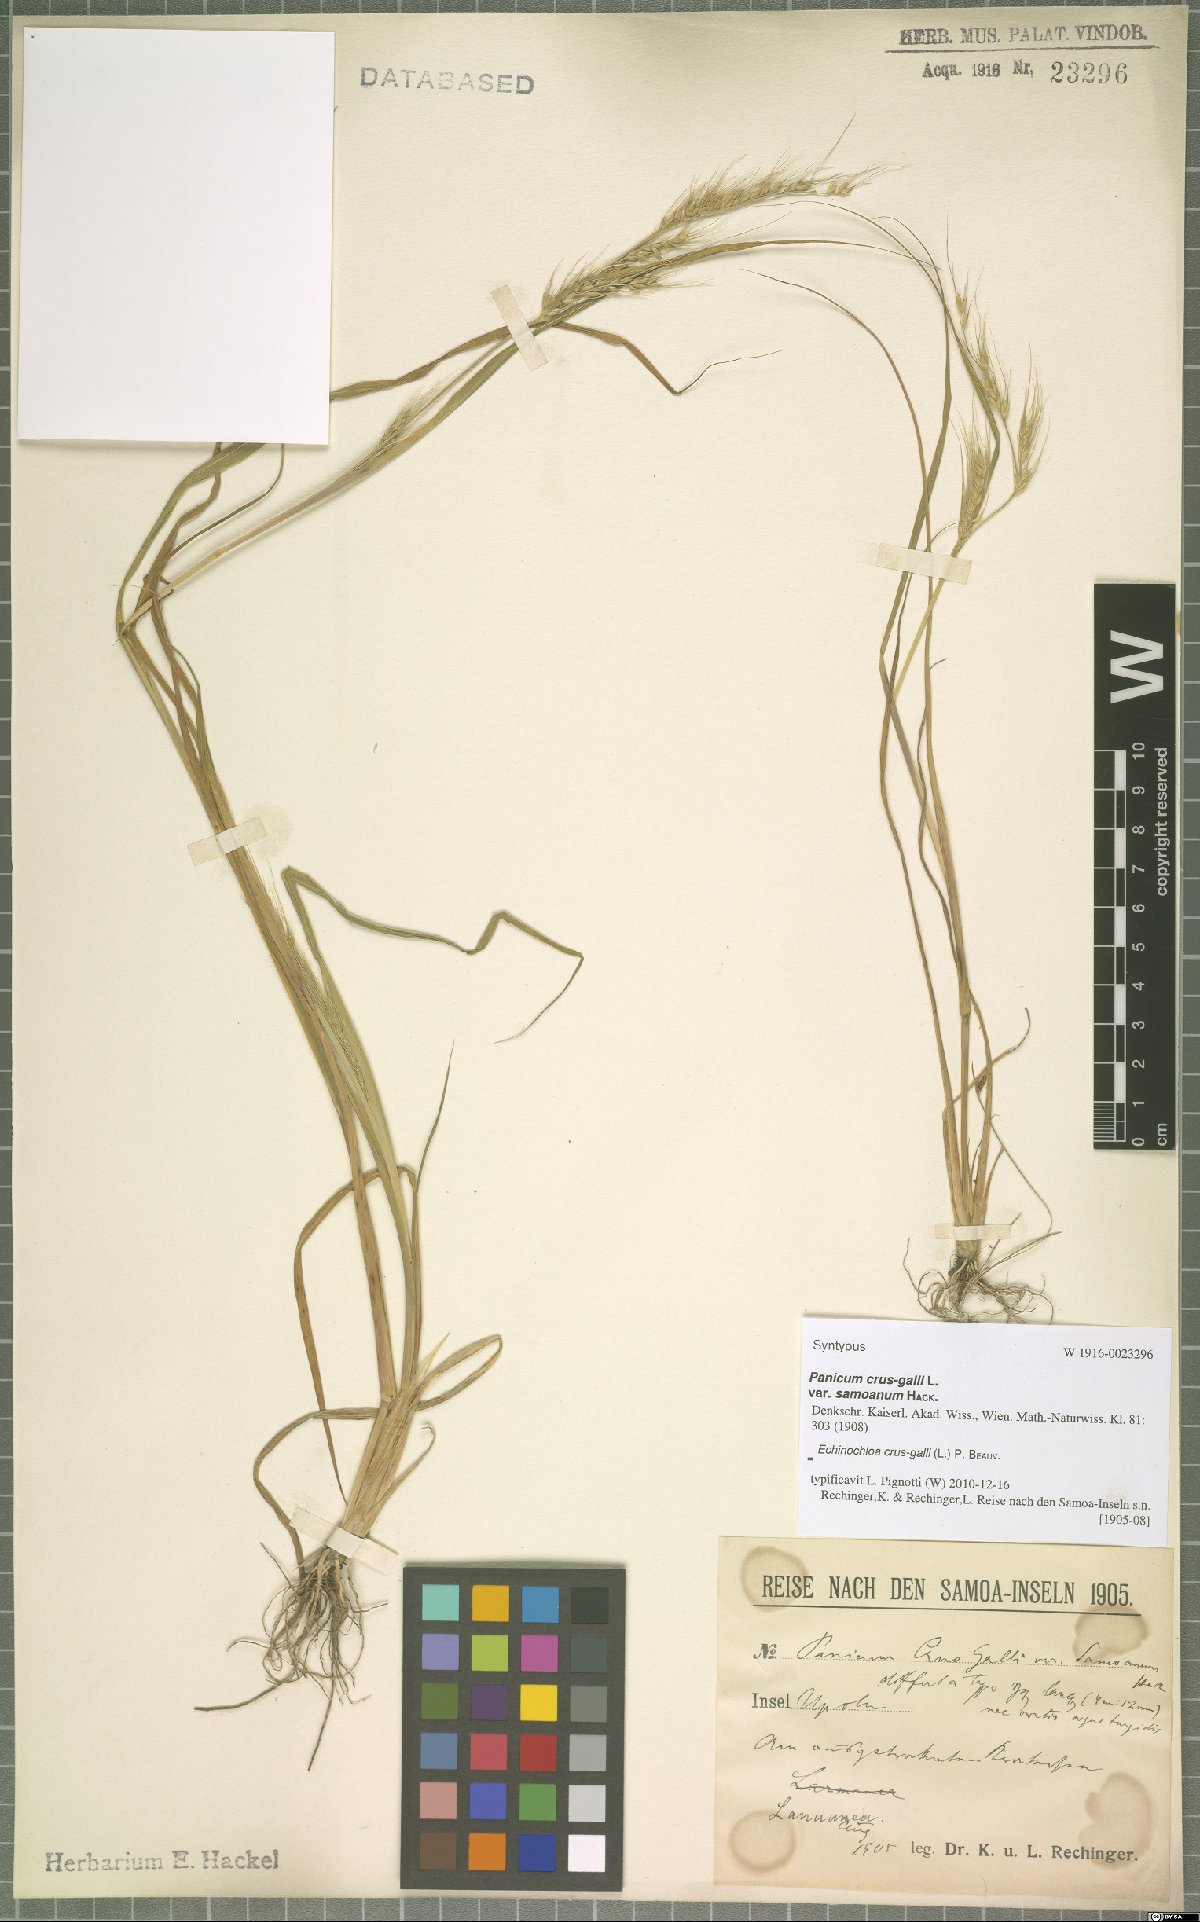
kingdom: Plantae
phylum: Tracheophyta
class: Liliopsida
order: Poales
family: Poaceae
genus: Echinochloa
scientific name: Echinochloa crus-galli
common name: Cockspur
